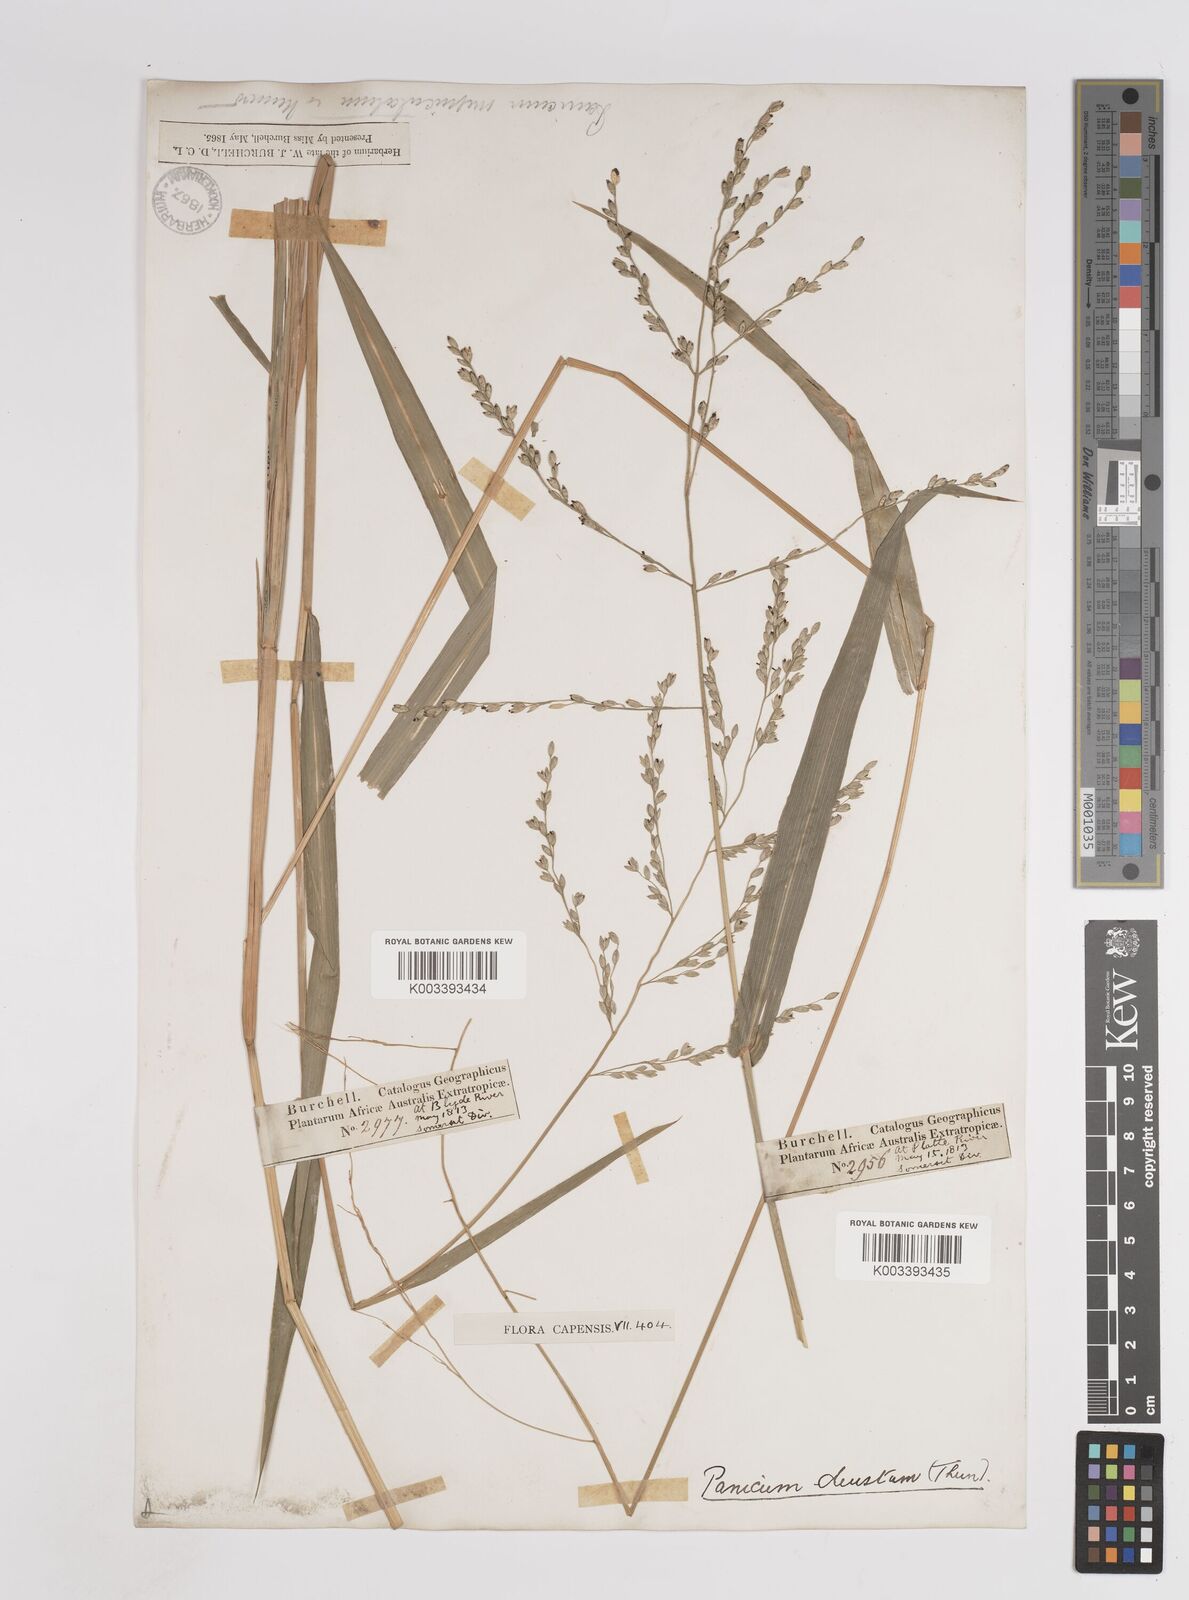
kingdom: Plantae
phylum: Tracheophyta
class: Liliopsida
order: Poales
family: Poaceae
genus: Panicum
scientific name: Panicum deustum
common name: Reed panicum
